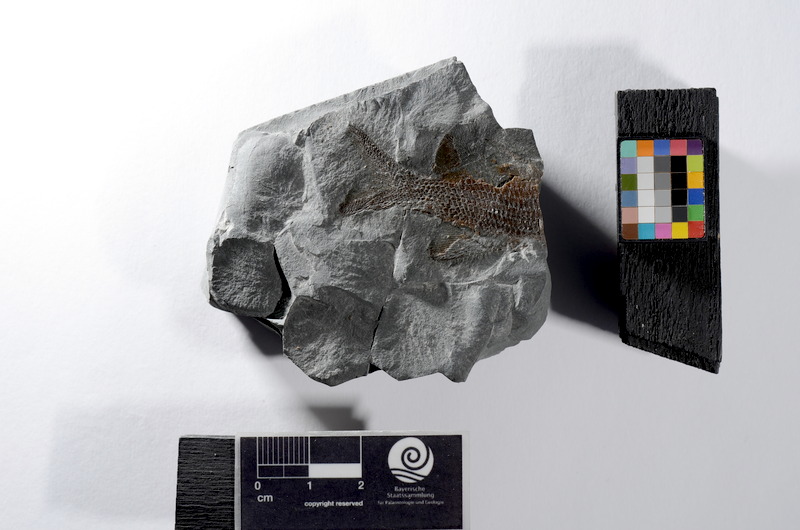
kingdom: Animalia
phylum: Chordata
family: Palaeoniscidae
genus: Gyrolepis
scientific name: Gyrolepis
